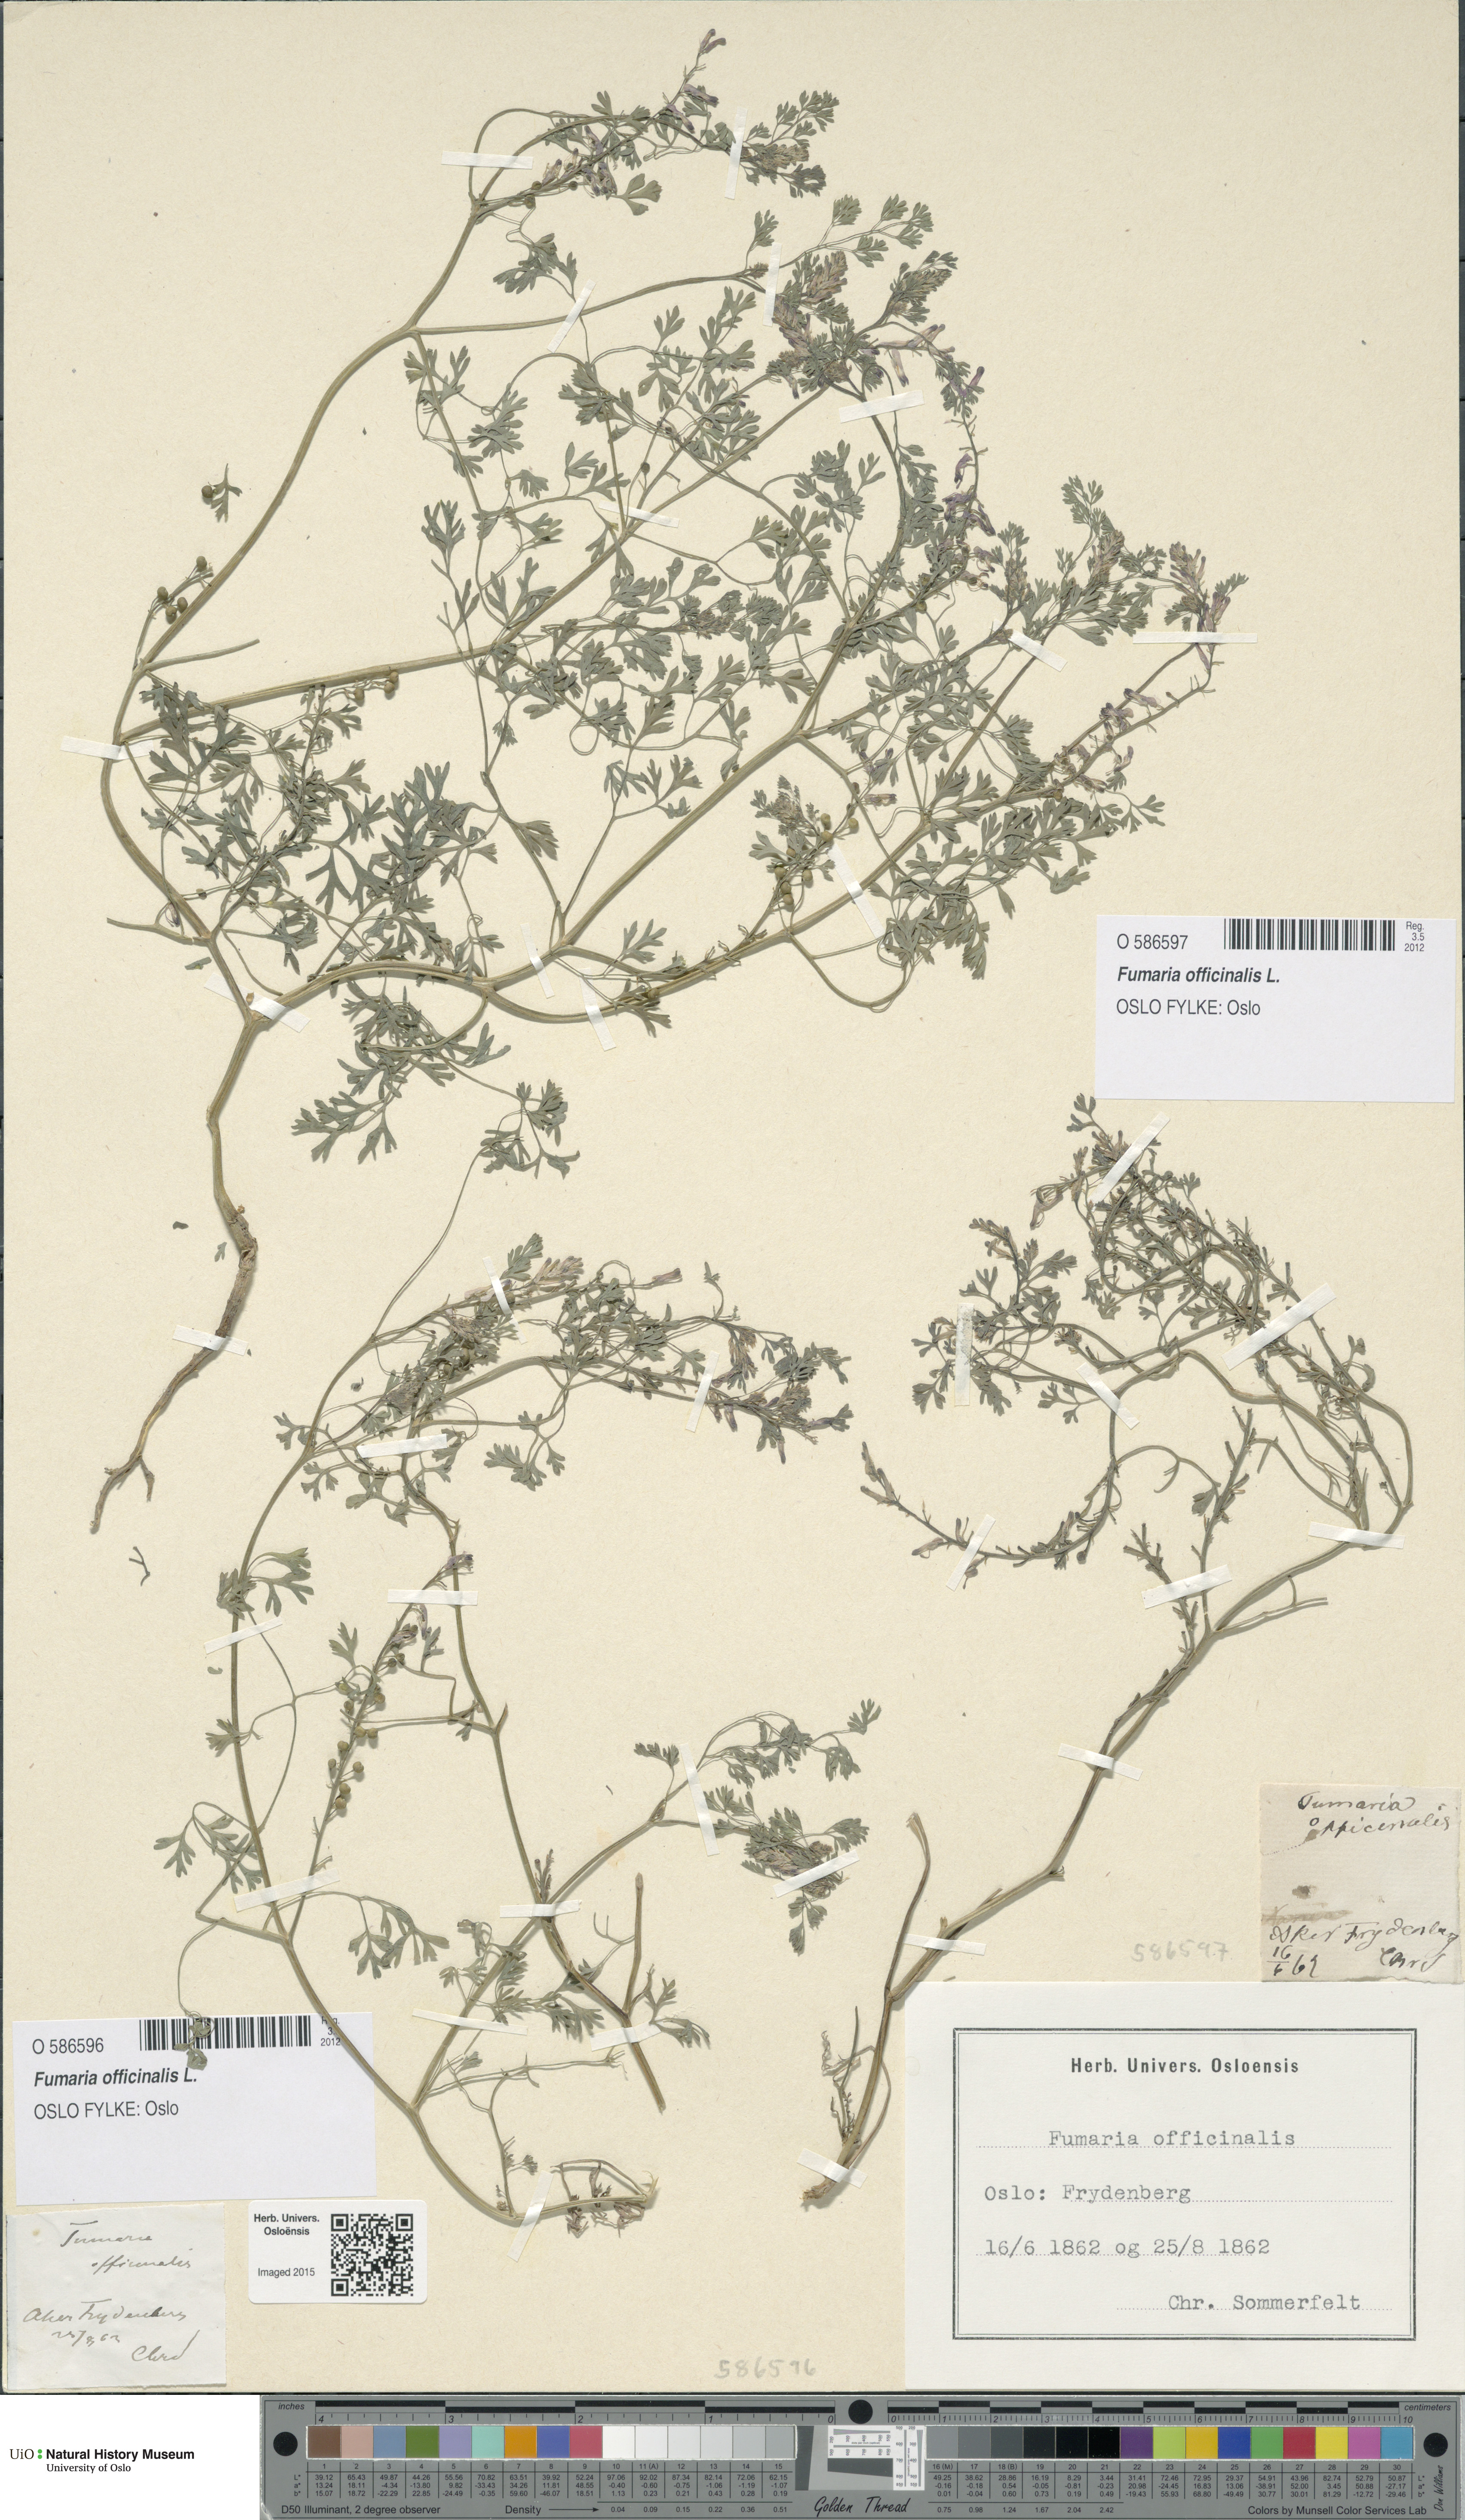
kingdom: Plantae
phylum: Tracheophyta
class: Magnoliopsida
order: Ranunculales
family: Papaveraceae
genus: Fumaria
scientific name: Fumaria officinalis
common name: Common fumitory
